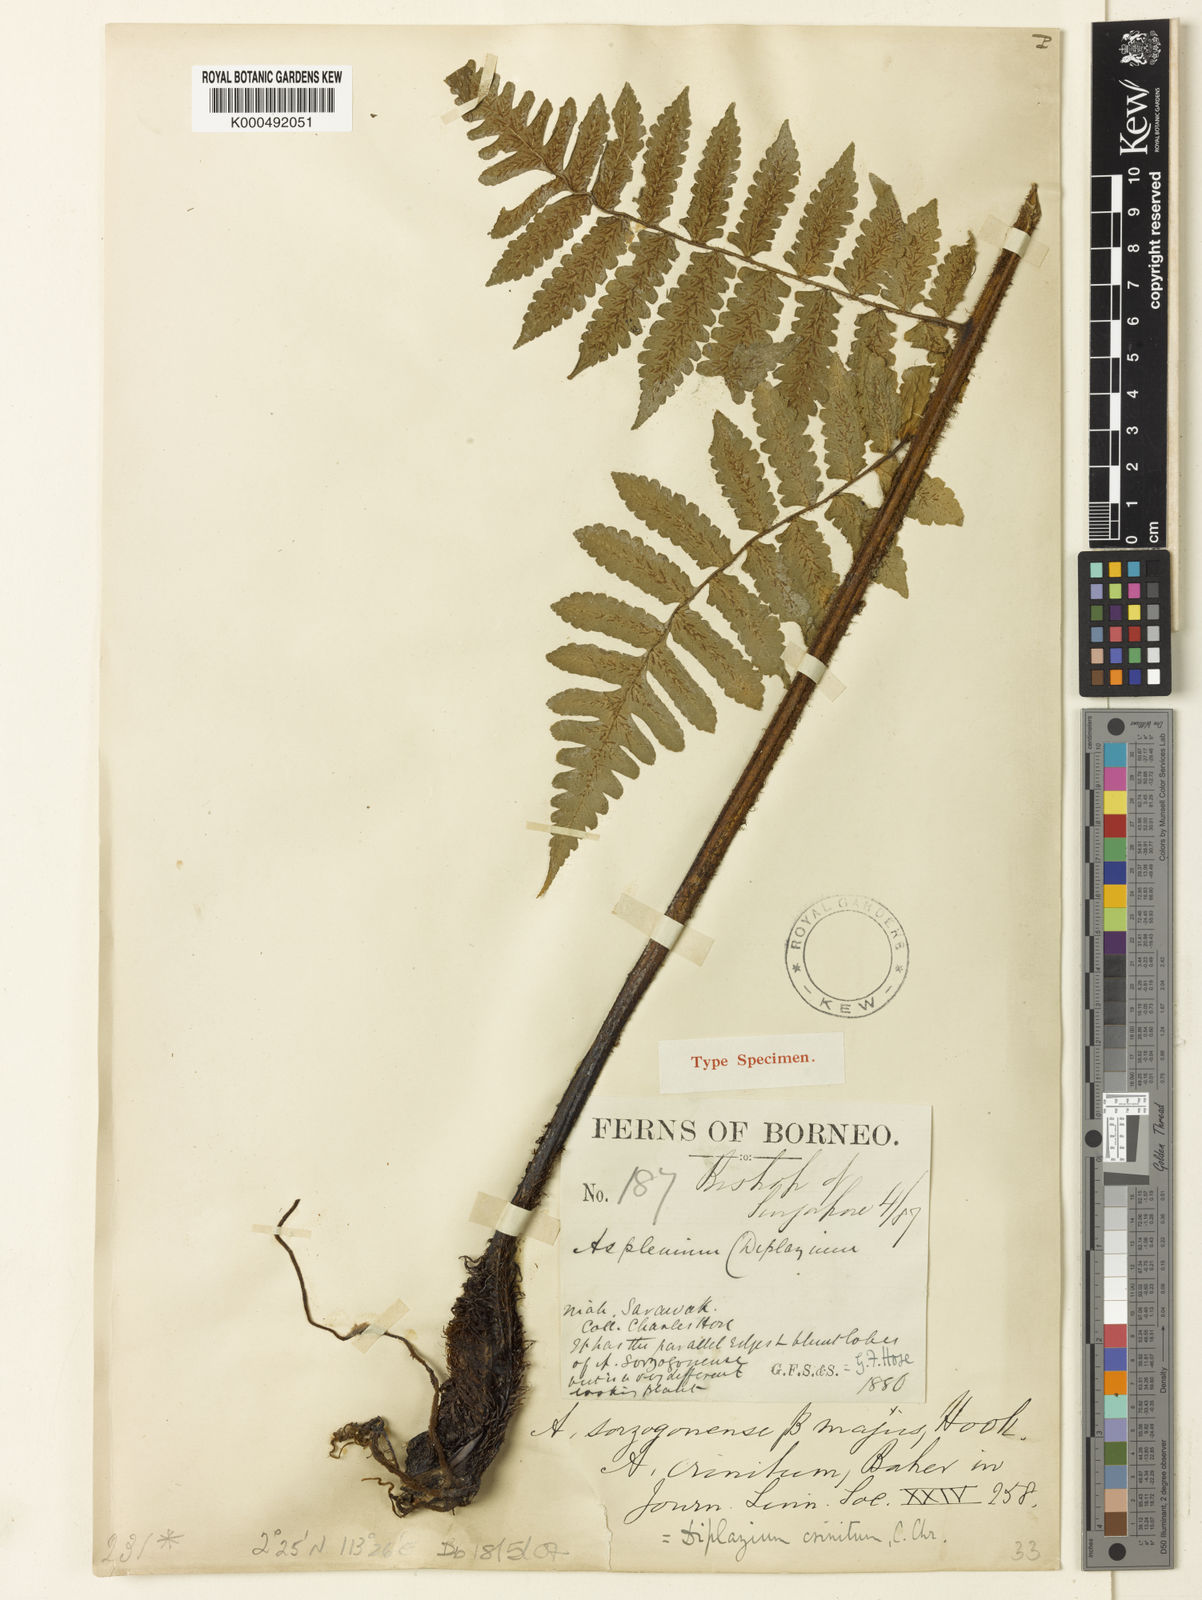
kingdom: Plantae
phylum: Tracheophyta
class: Polypodiopsida
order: Polypodiales
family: Athyriaceae
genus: Diplazium
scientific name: Diplazium crinitum
